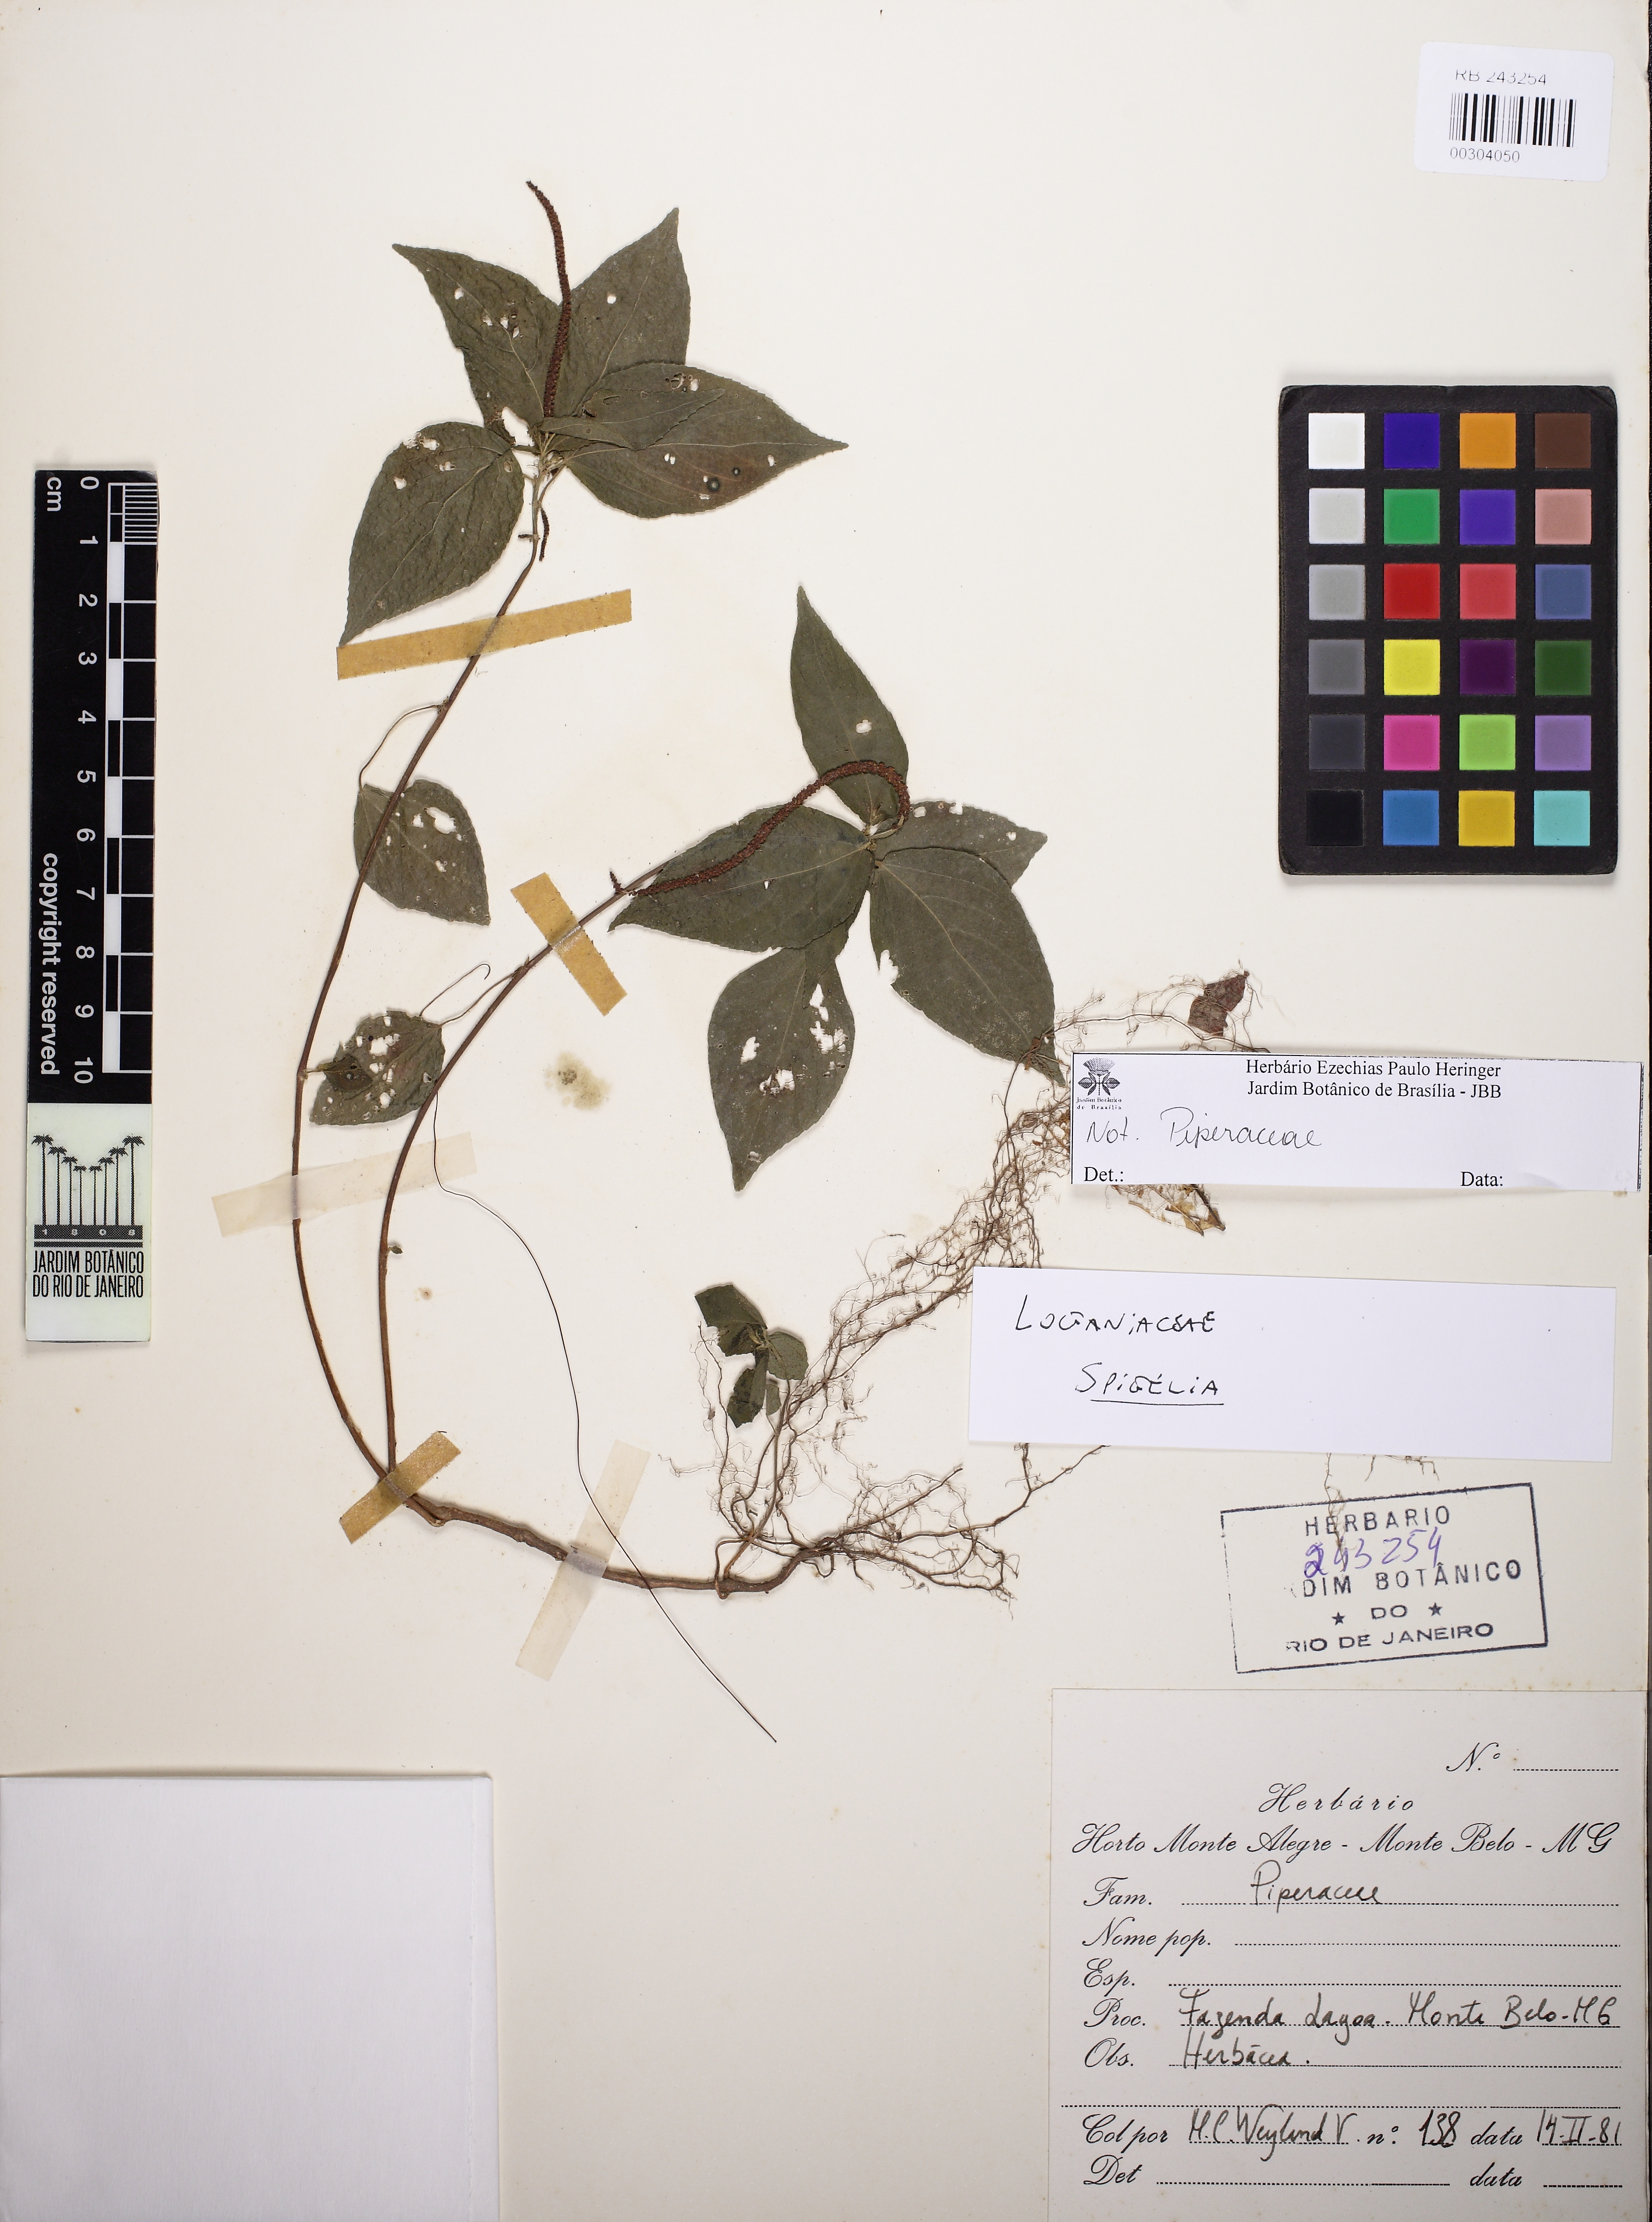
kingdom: Plantae
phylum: Tracheophyta
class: Magnoliopsida
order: Malpighiales
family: Euphorbiaceae
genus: Acalypha
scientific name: Acalypha
